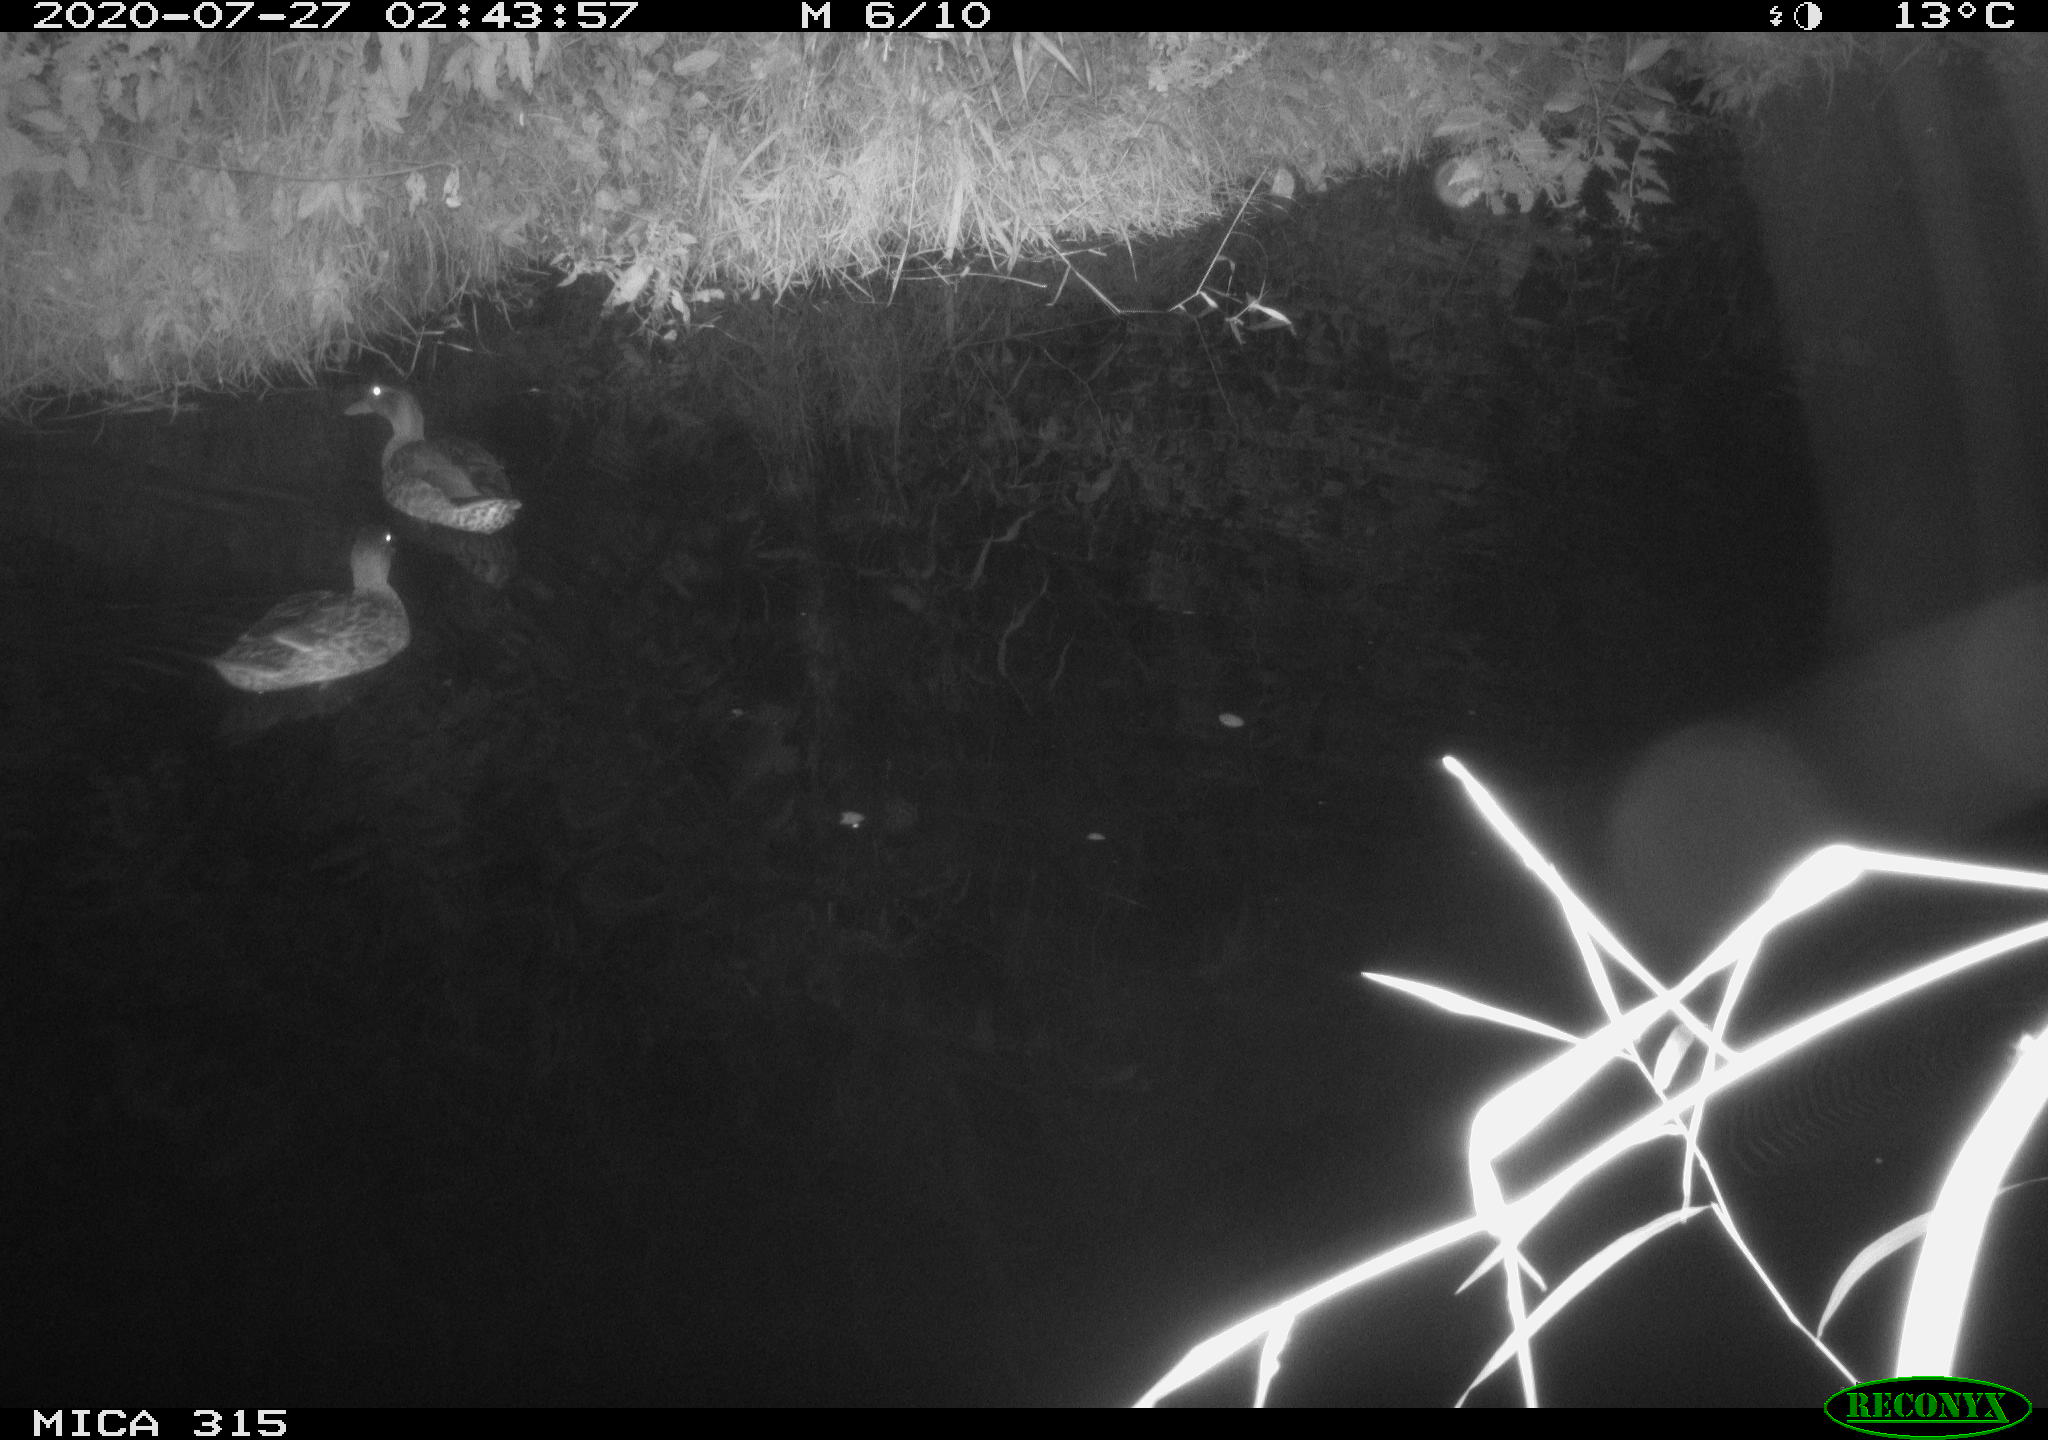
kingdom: Animalia
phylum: Chordata
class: Aves
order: Anseriformes
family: Anatidae
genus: Anas
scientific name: Anas platyrhynchos
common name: Mallard
